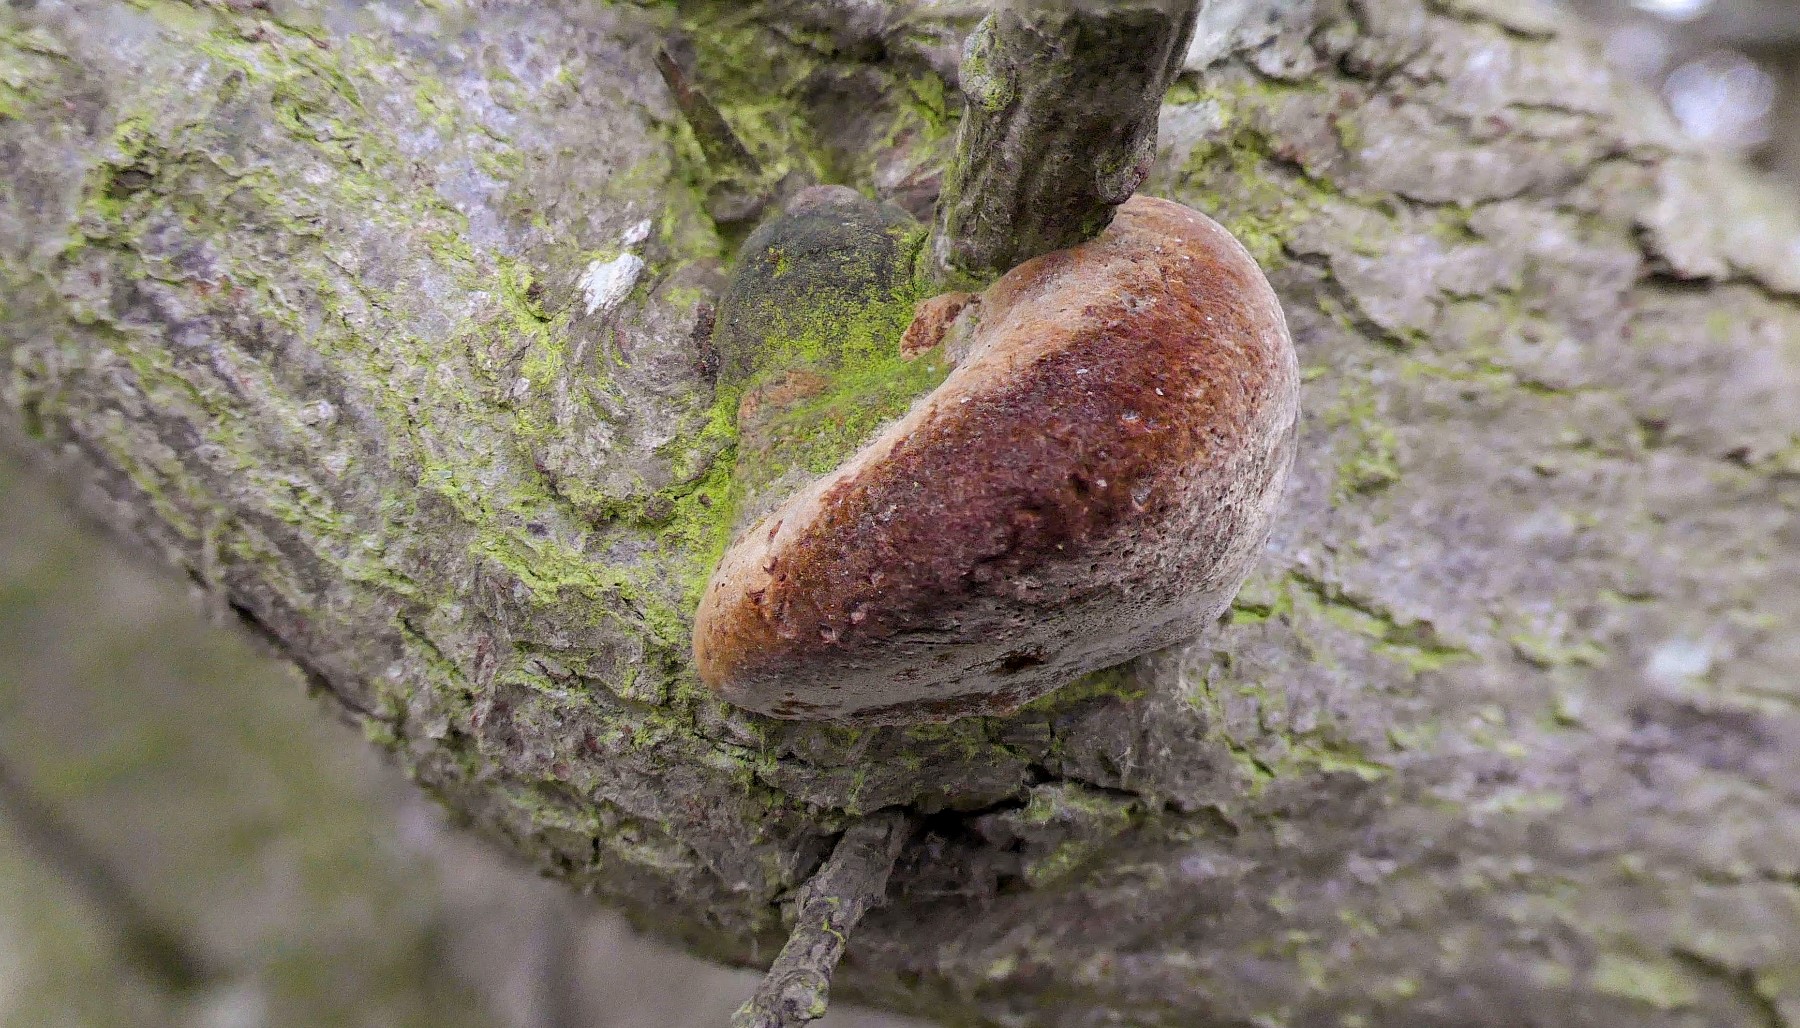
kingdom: Fungi
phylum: Basidiomycota
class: Agaricomycetes
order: Hymenochaetales
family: Hymenochaetaceae
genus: Fomitiporia
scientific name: Fomitiporia hippophaeicola
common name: havtorn-ildporesvamp
